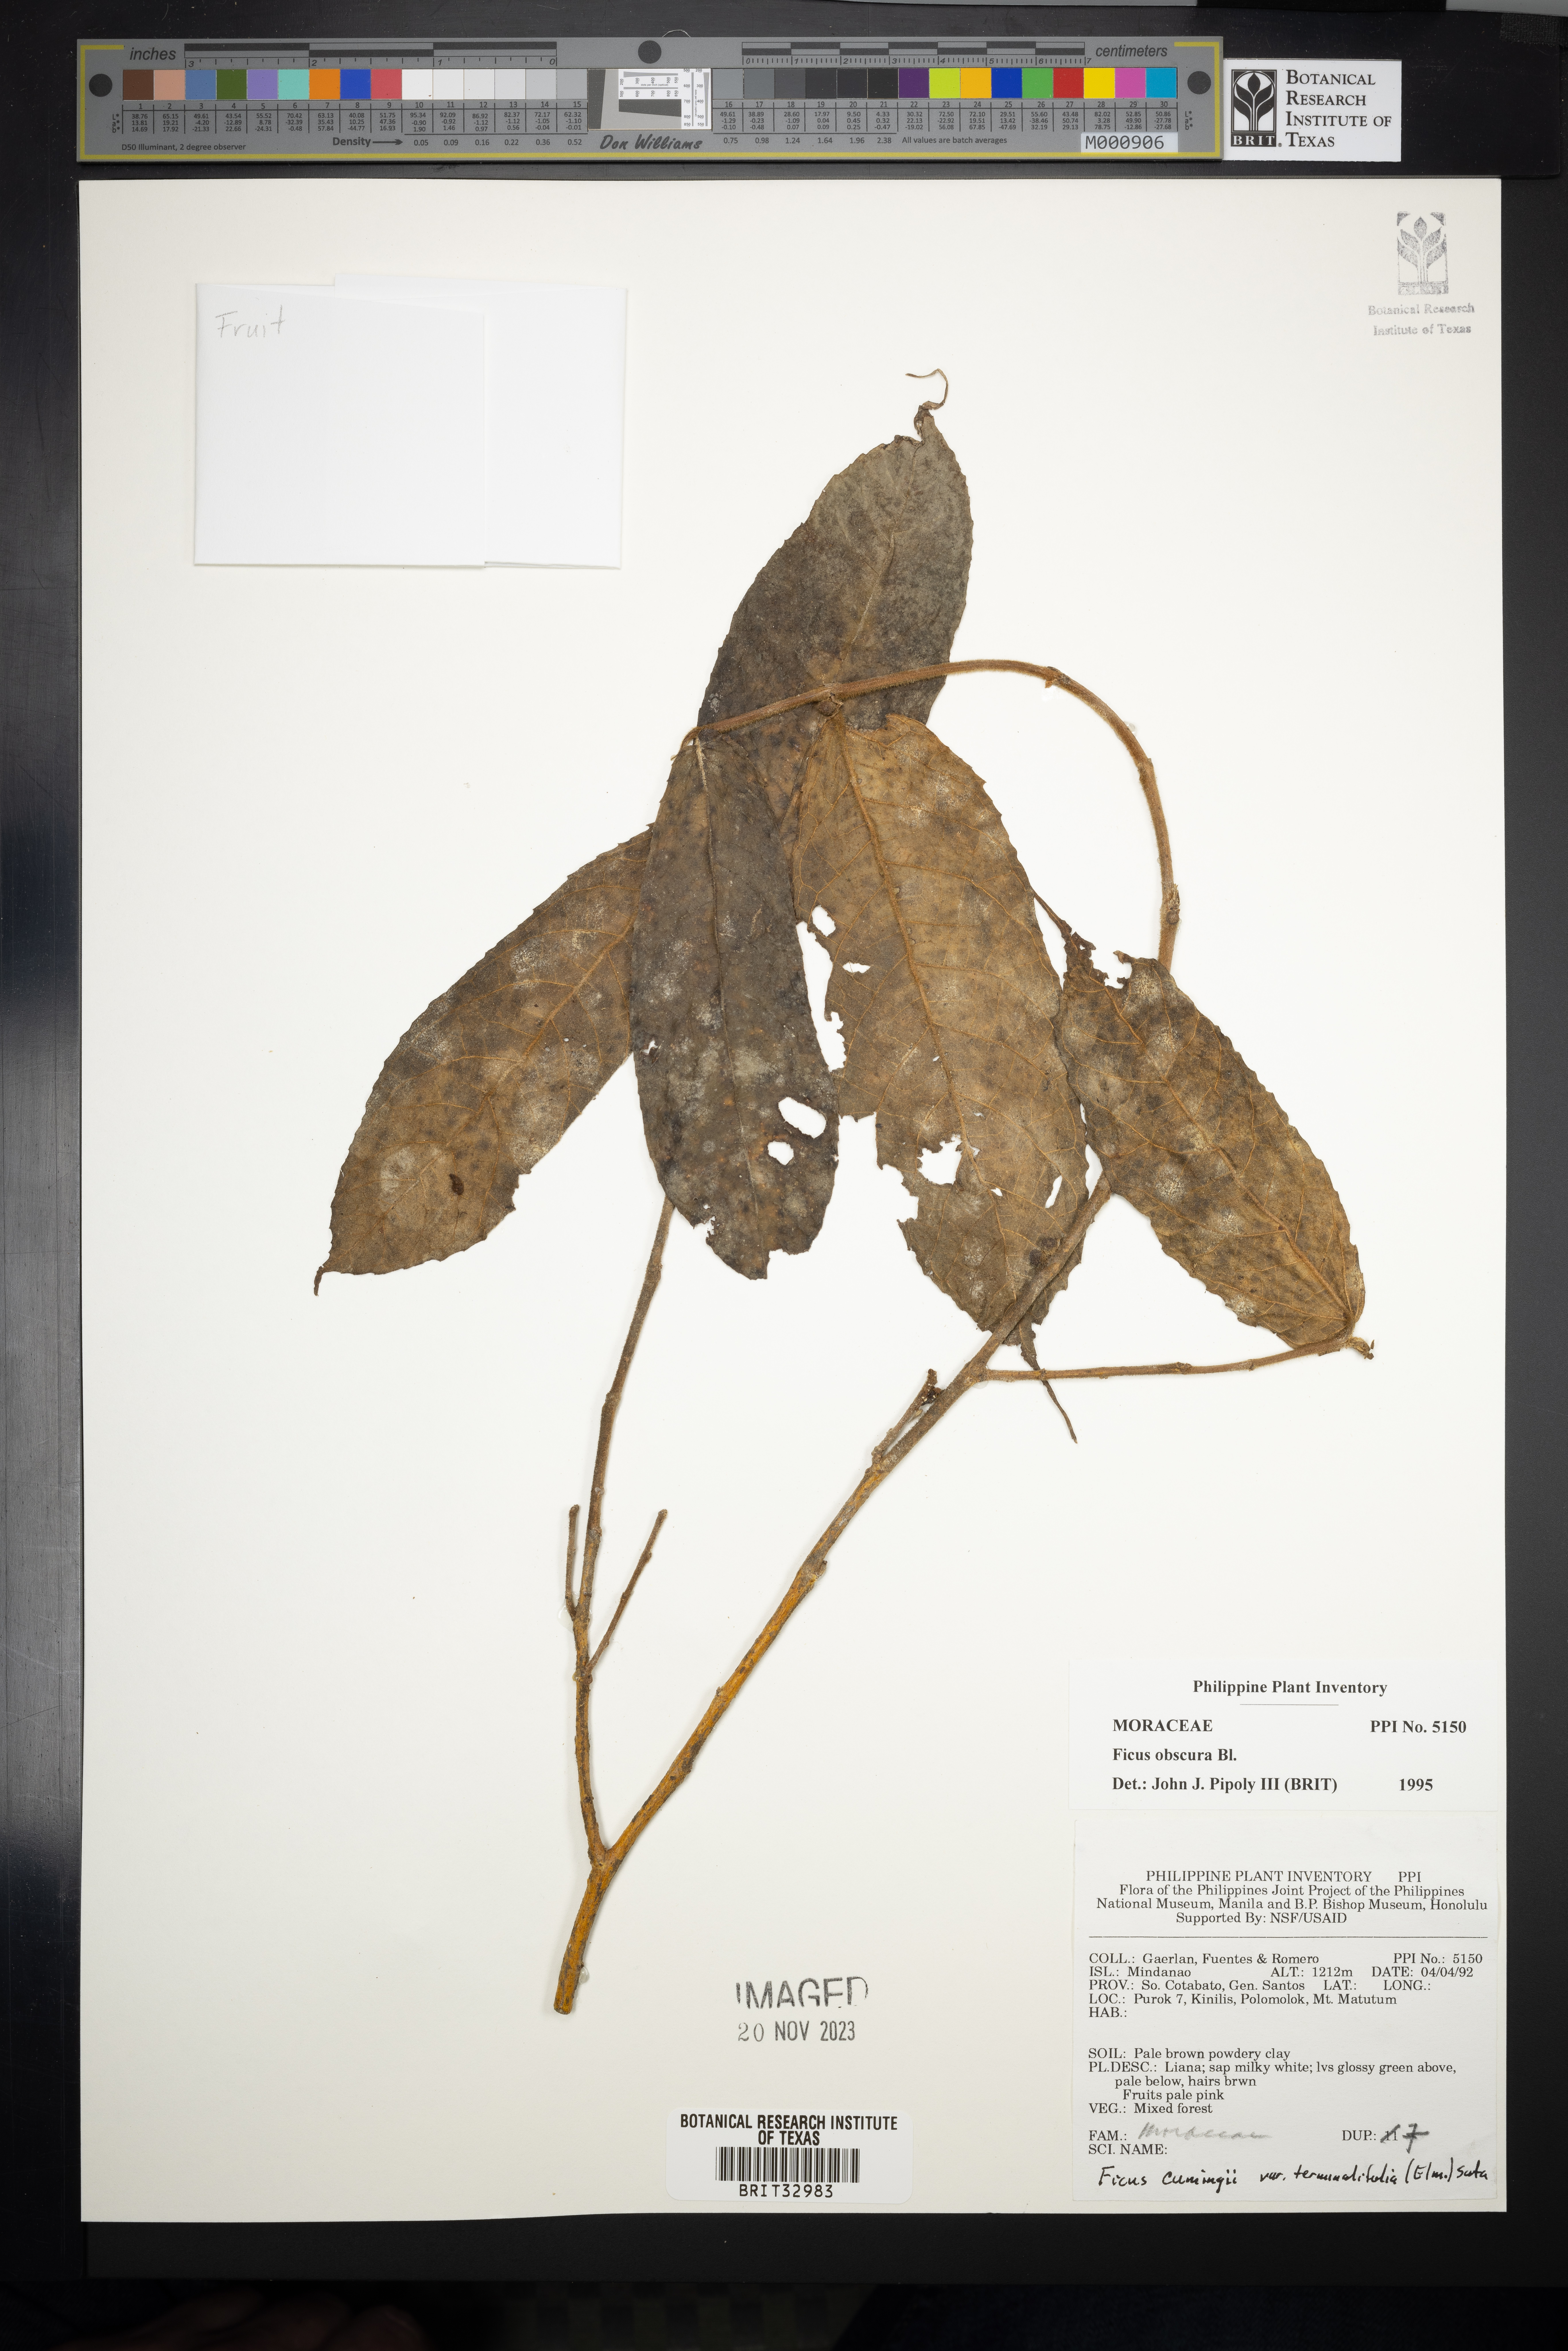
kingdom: Plantae
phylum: Tracheophyta
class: Magnoliopsida
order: Rosales
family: Moraceae
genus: Ficus
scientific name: Ficus obscura
